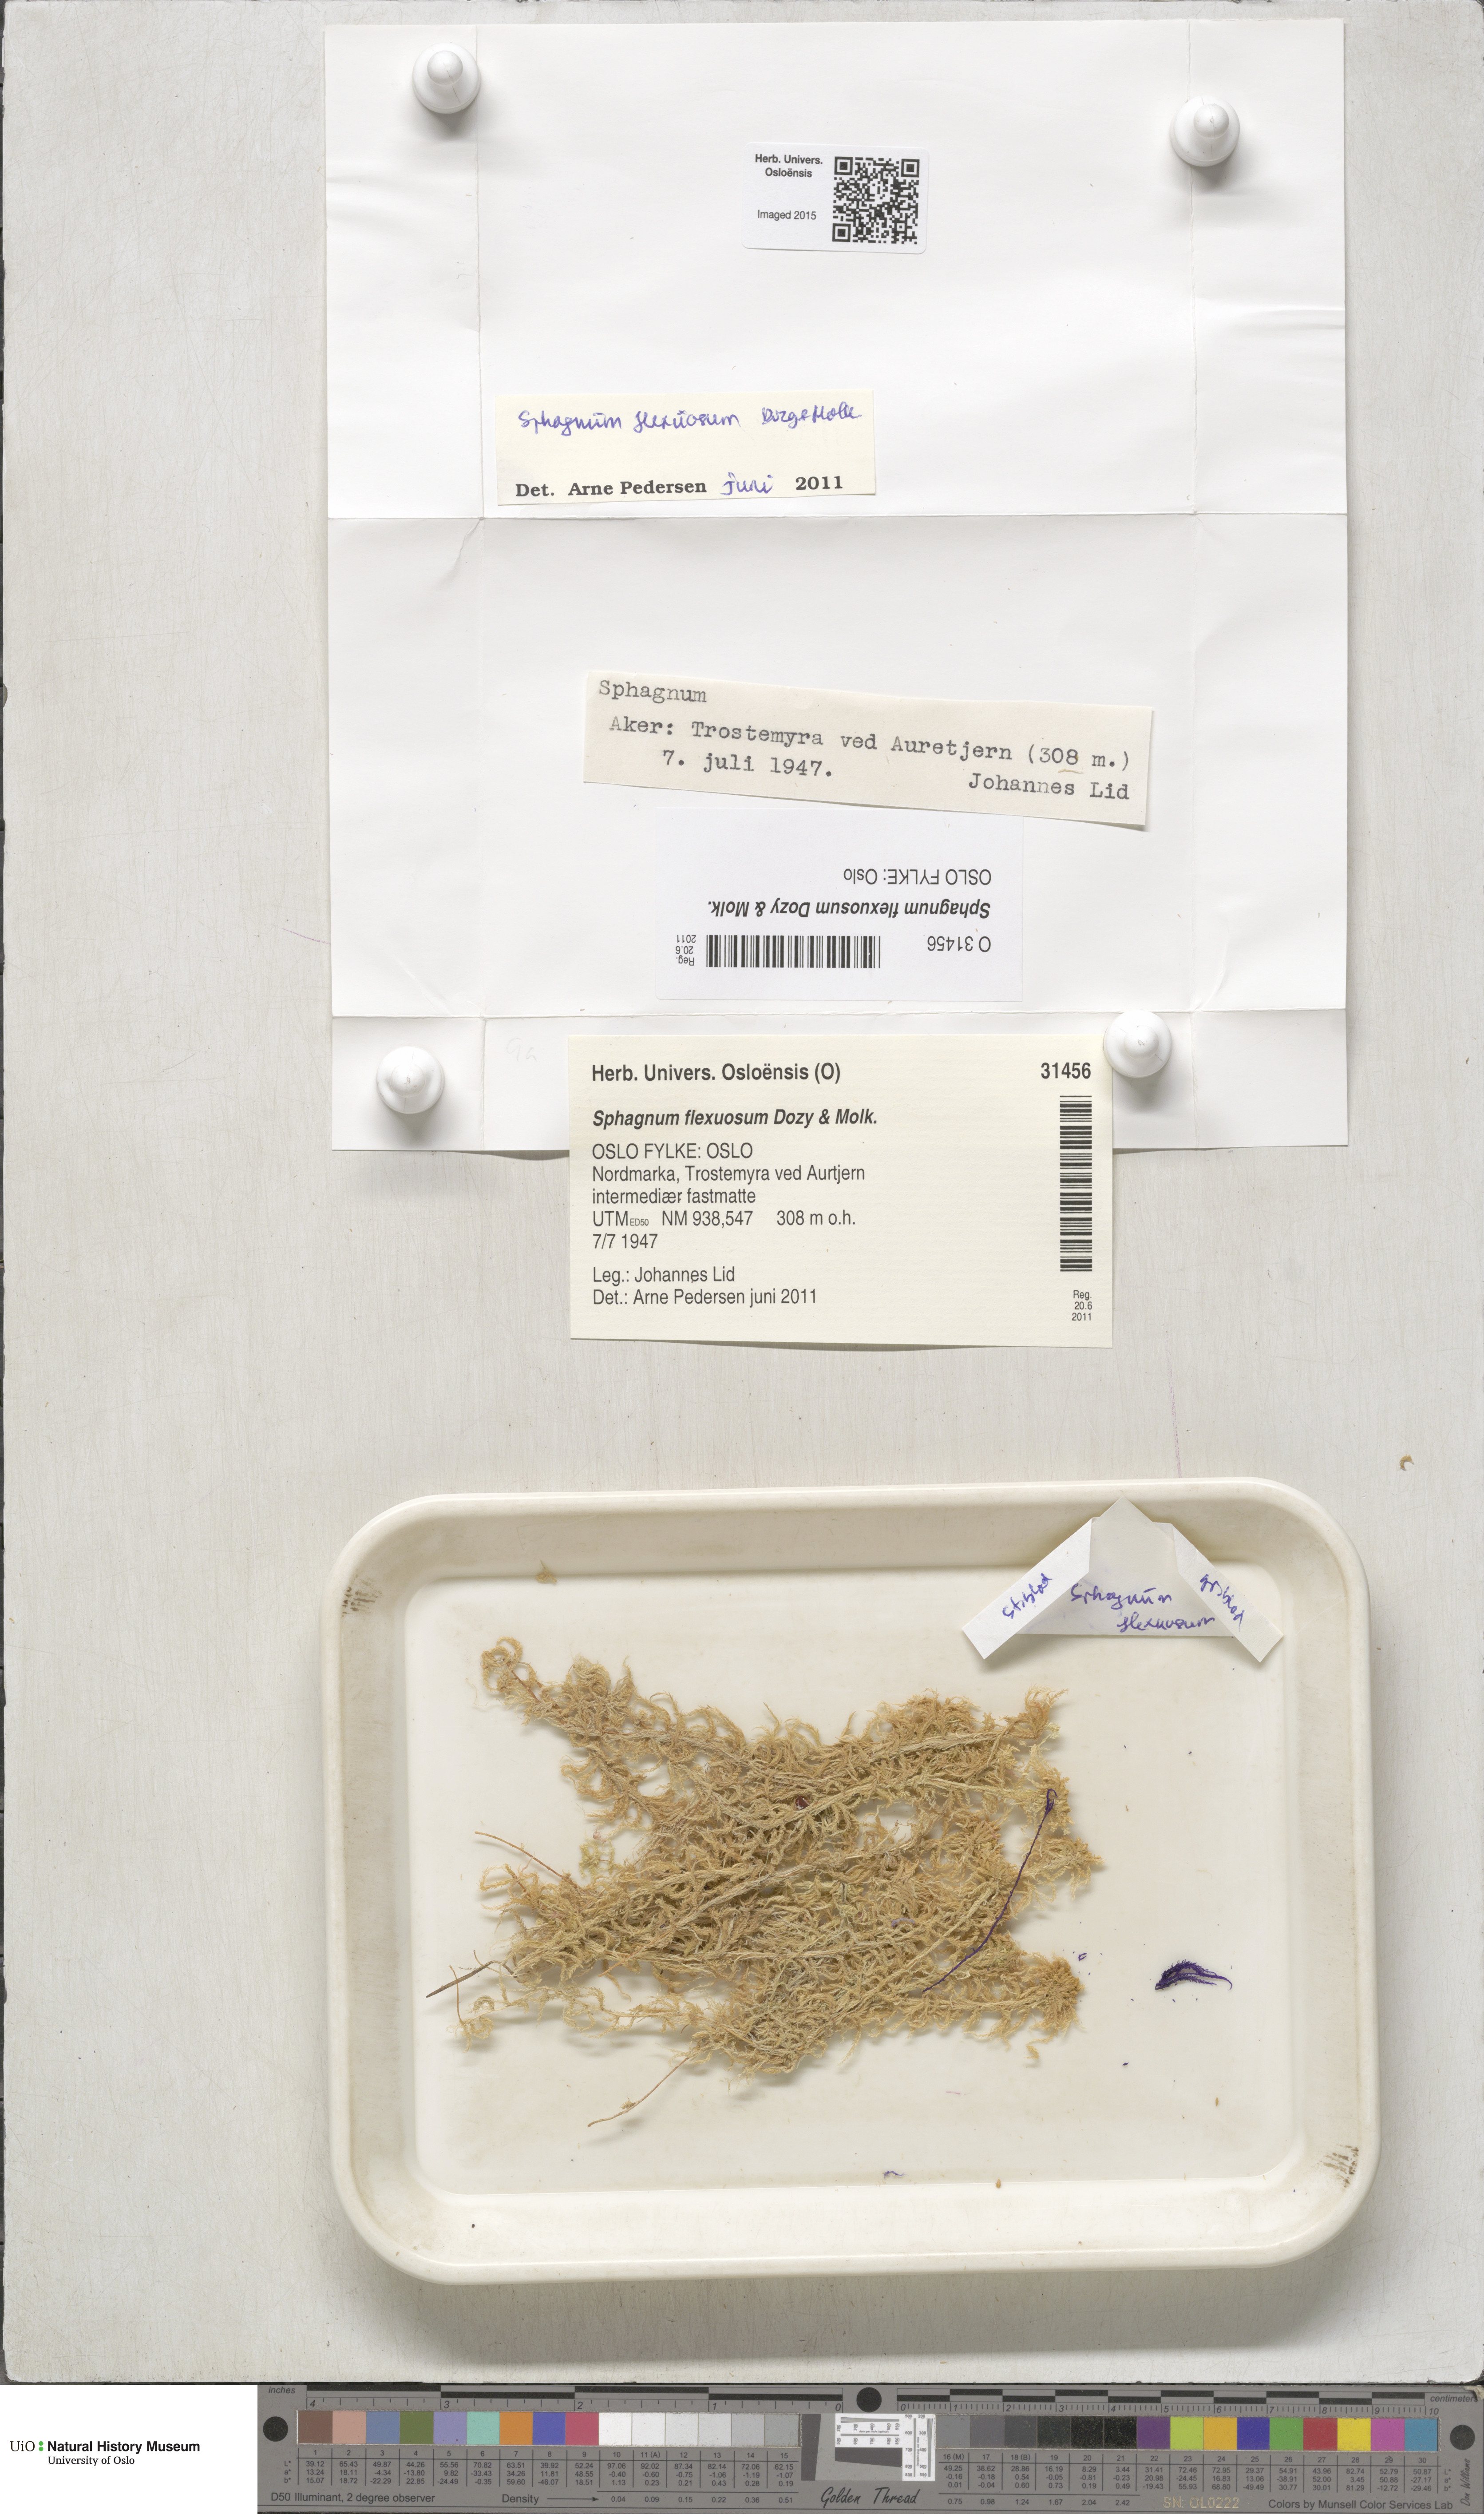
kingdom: Plantae
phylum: Bryophyta
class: Sphagnopsida
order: Sphagnales
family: Sphagnaceae
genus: Sphagnum
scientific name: Sphagnum flexuosum
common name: Flexible peat moss
